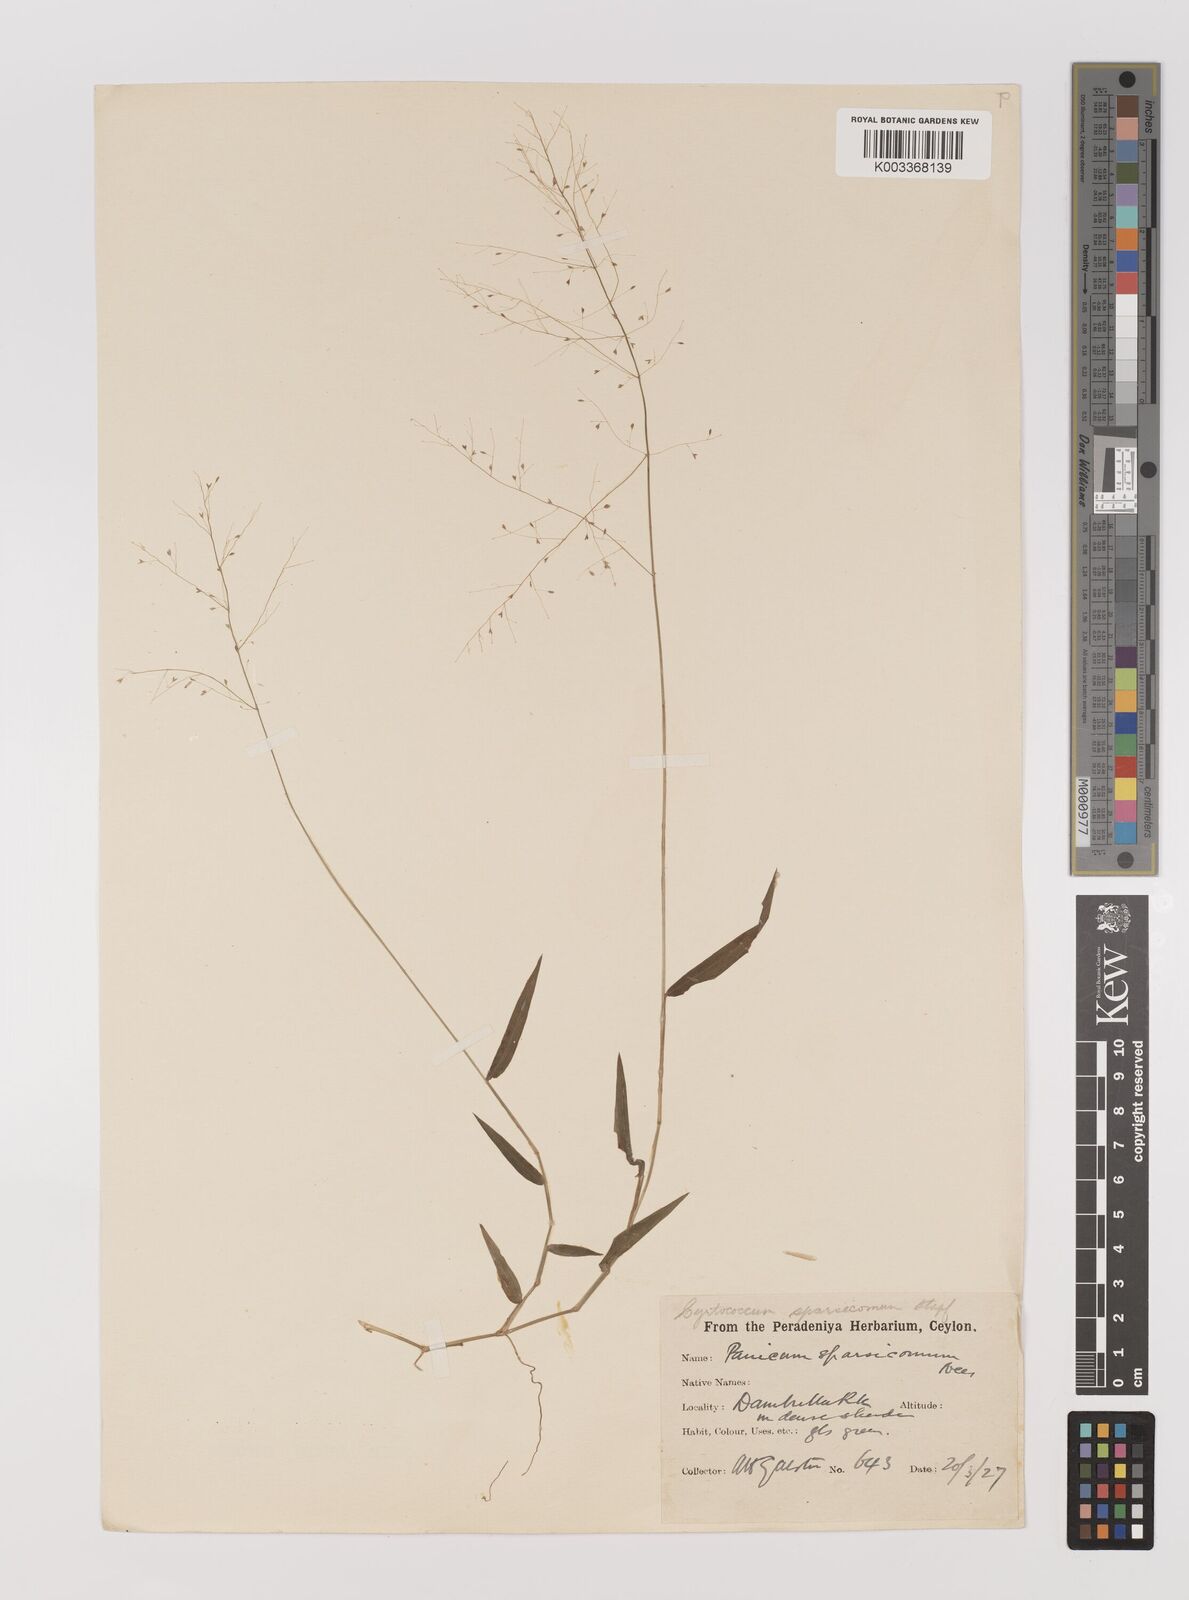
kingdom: Plantae
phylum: Tracheophyta
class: Liliopsida
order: Poales
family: Poaceae
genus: Panicum
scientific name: Panicum sparsicomum
